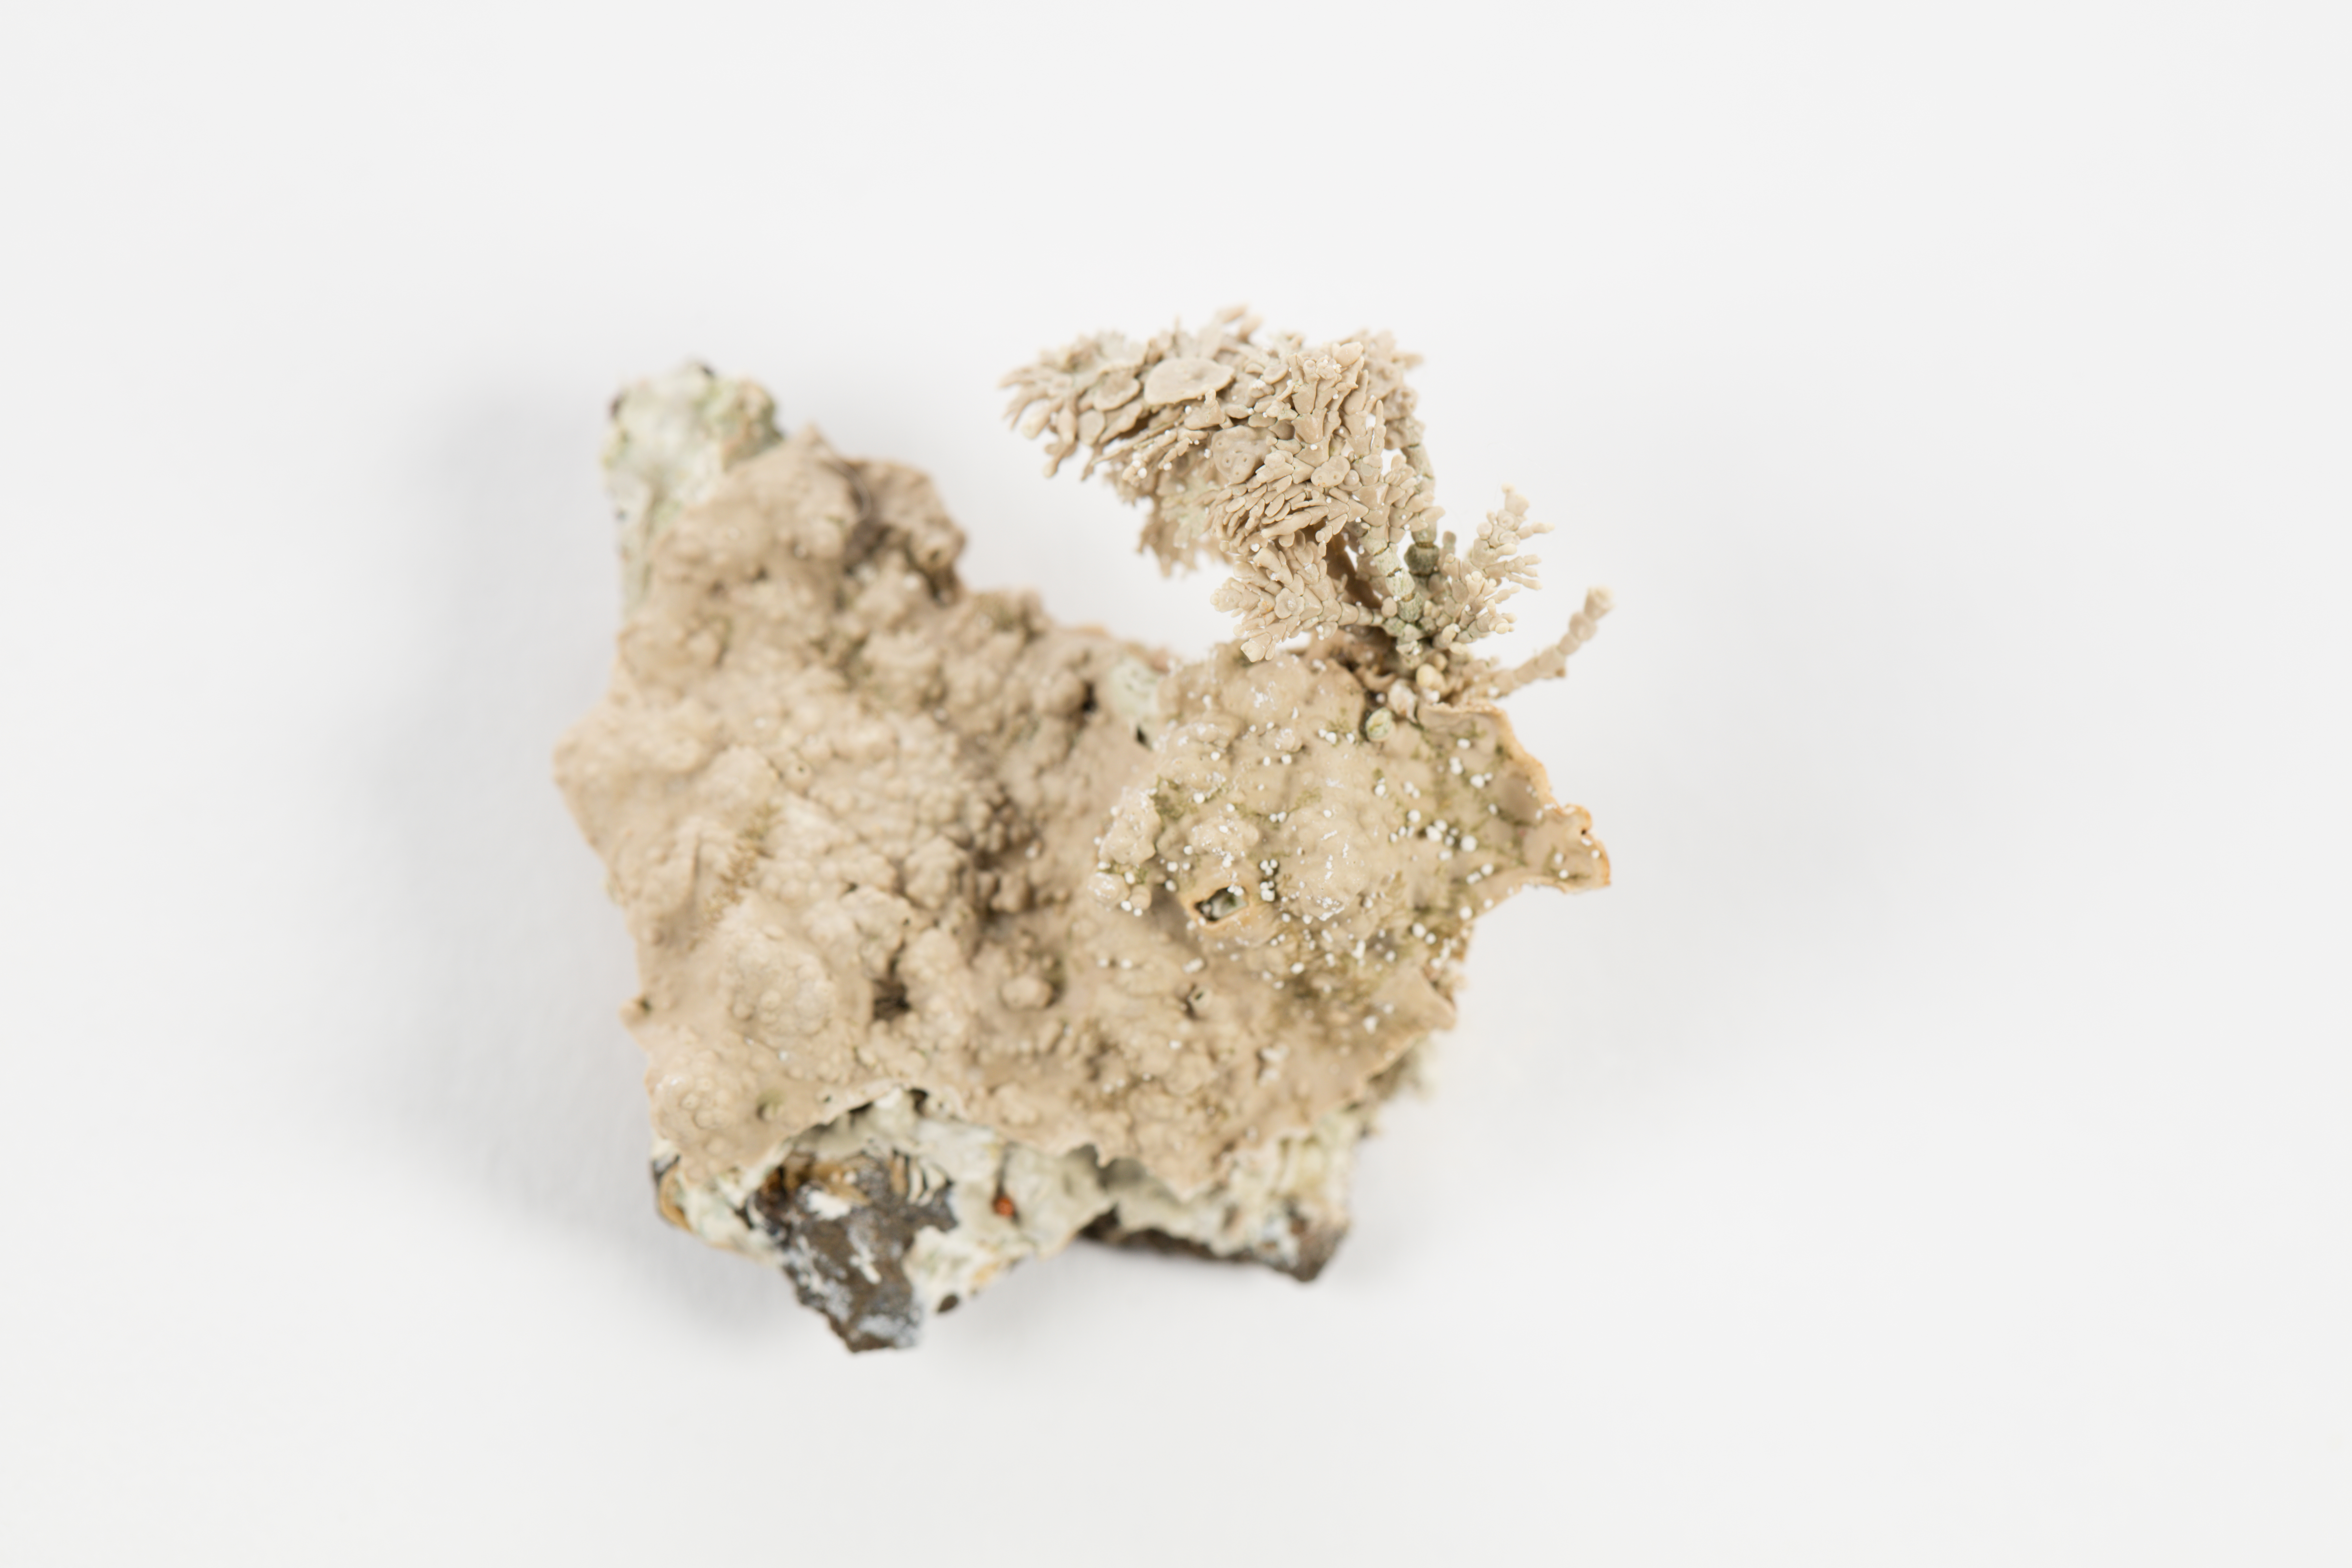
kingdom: Animalia
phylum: Cnidaria
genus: Lithophyllum
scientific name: Lithophyllum
